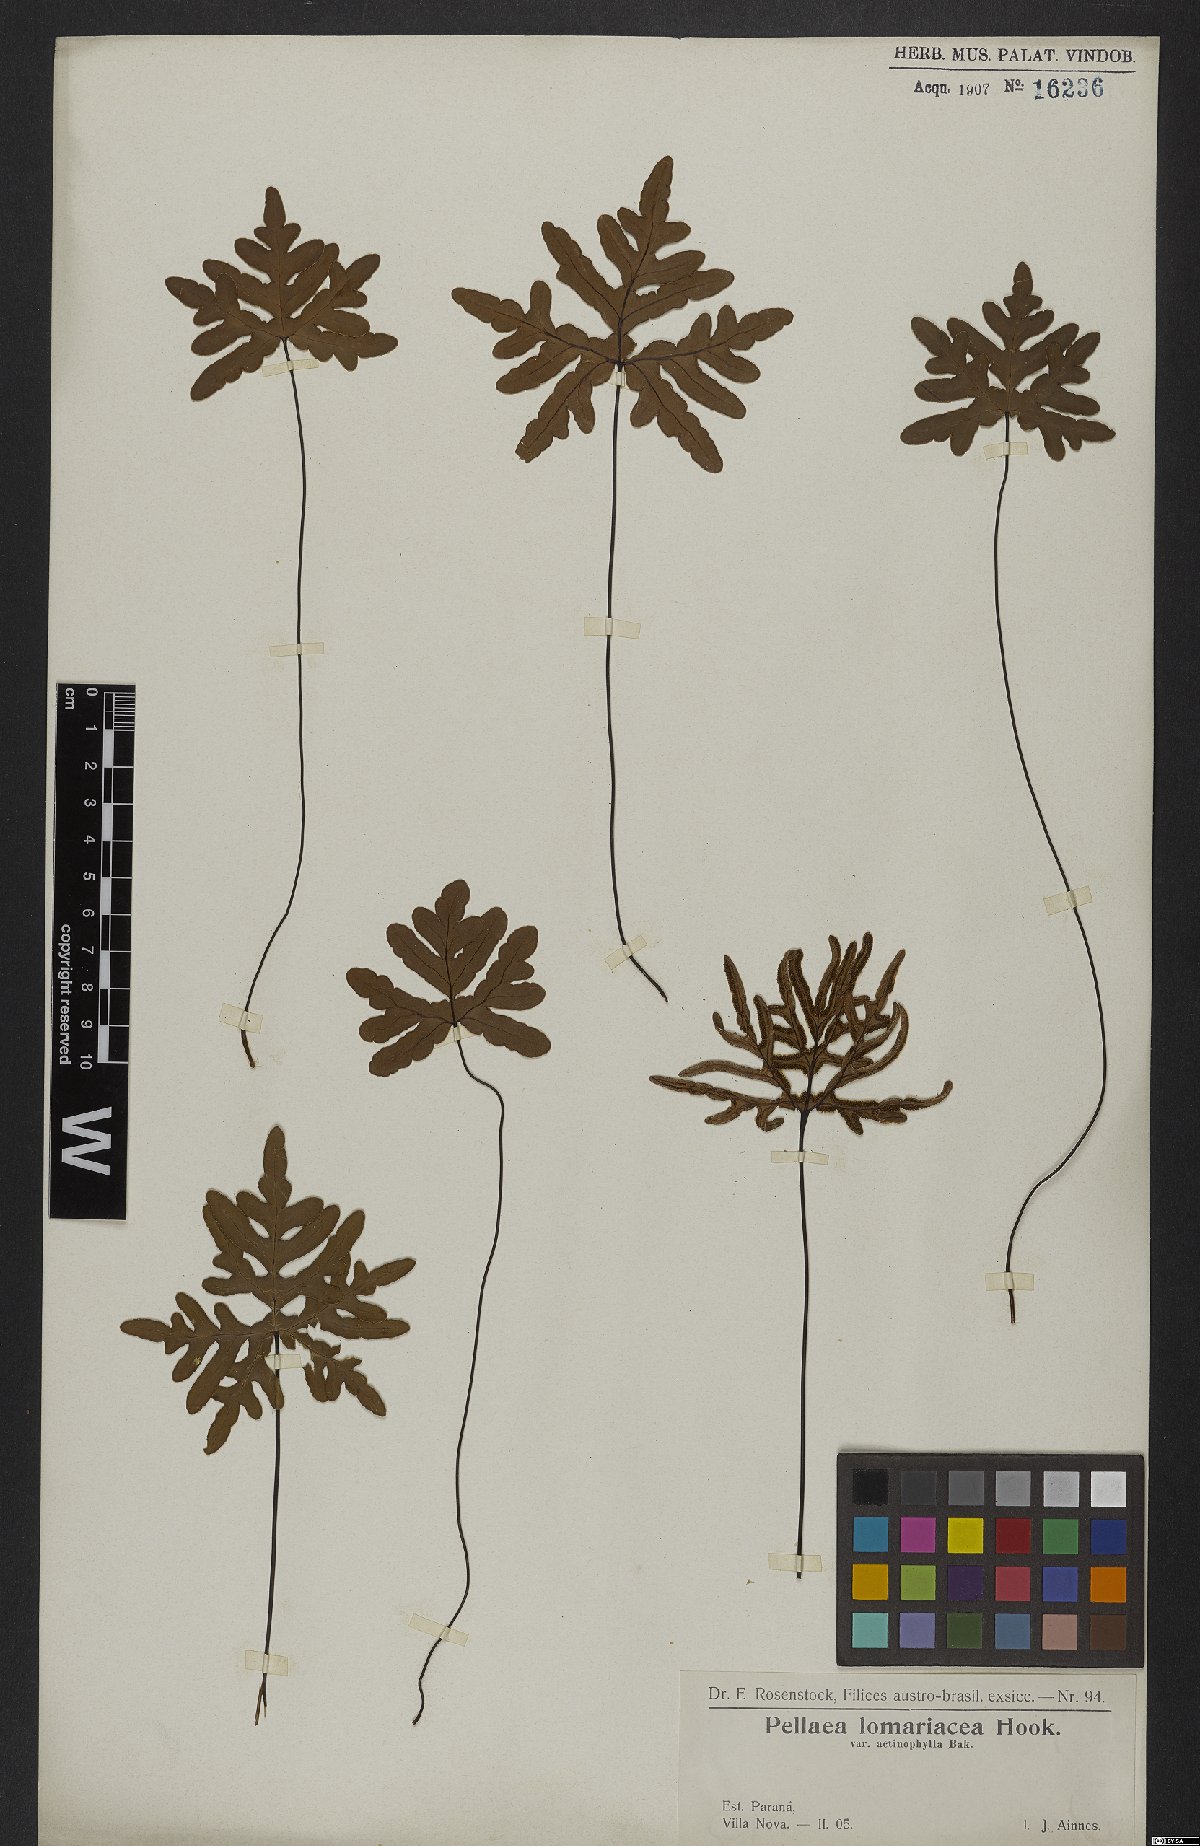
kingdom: Plantae
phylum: Tracheophyta
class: Polypodiopsida
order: Polypodiales
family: Pteridaceae
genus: Lytoneuron
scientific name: Lytoneuron lomariaceum
